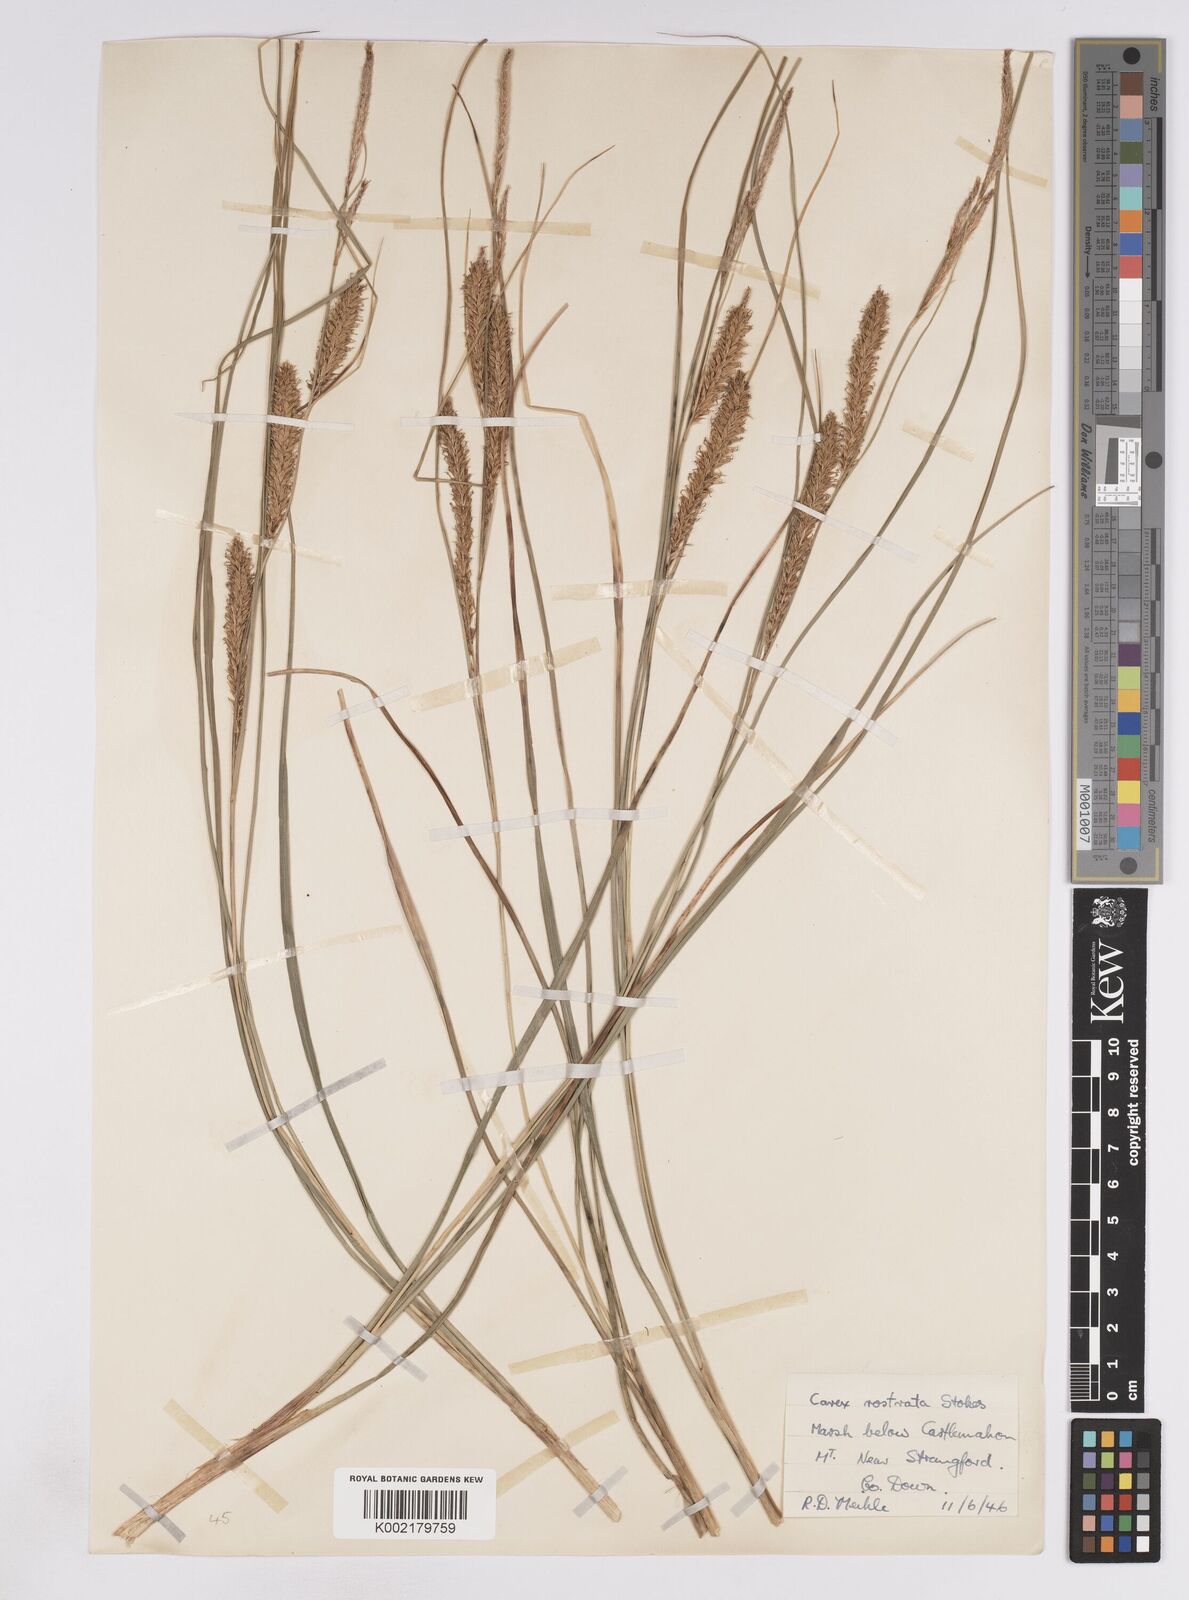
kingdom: Plantae
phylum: Tracheophyta
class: Liliopsida
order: Poales
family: Cyperaceae
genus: Carex
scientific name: Carex rostrata
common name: Bottle sedge
